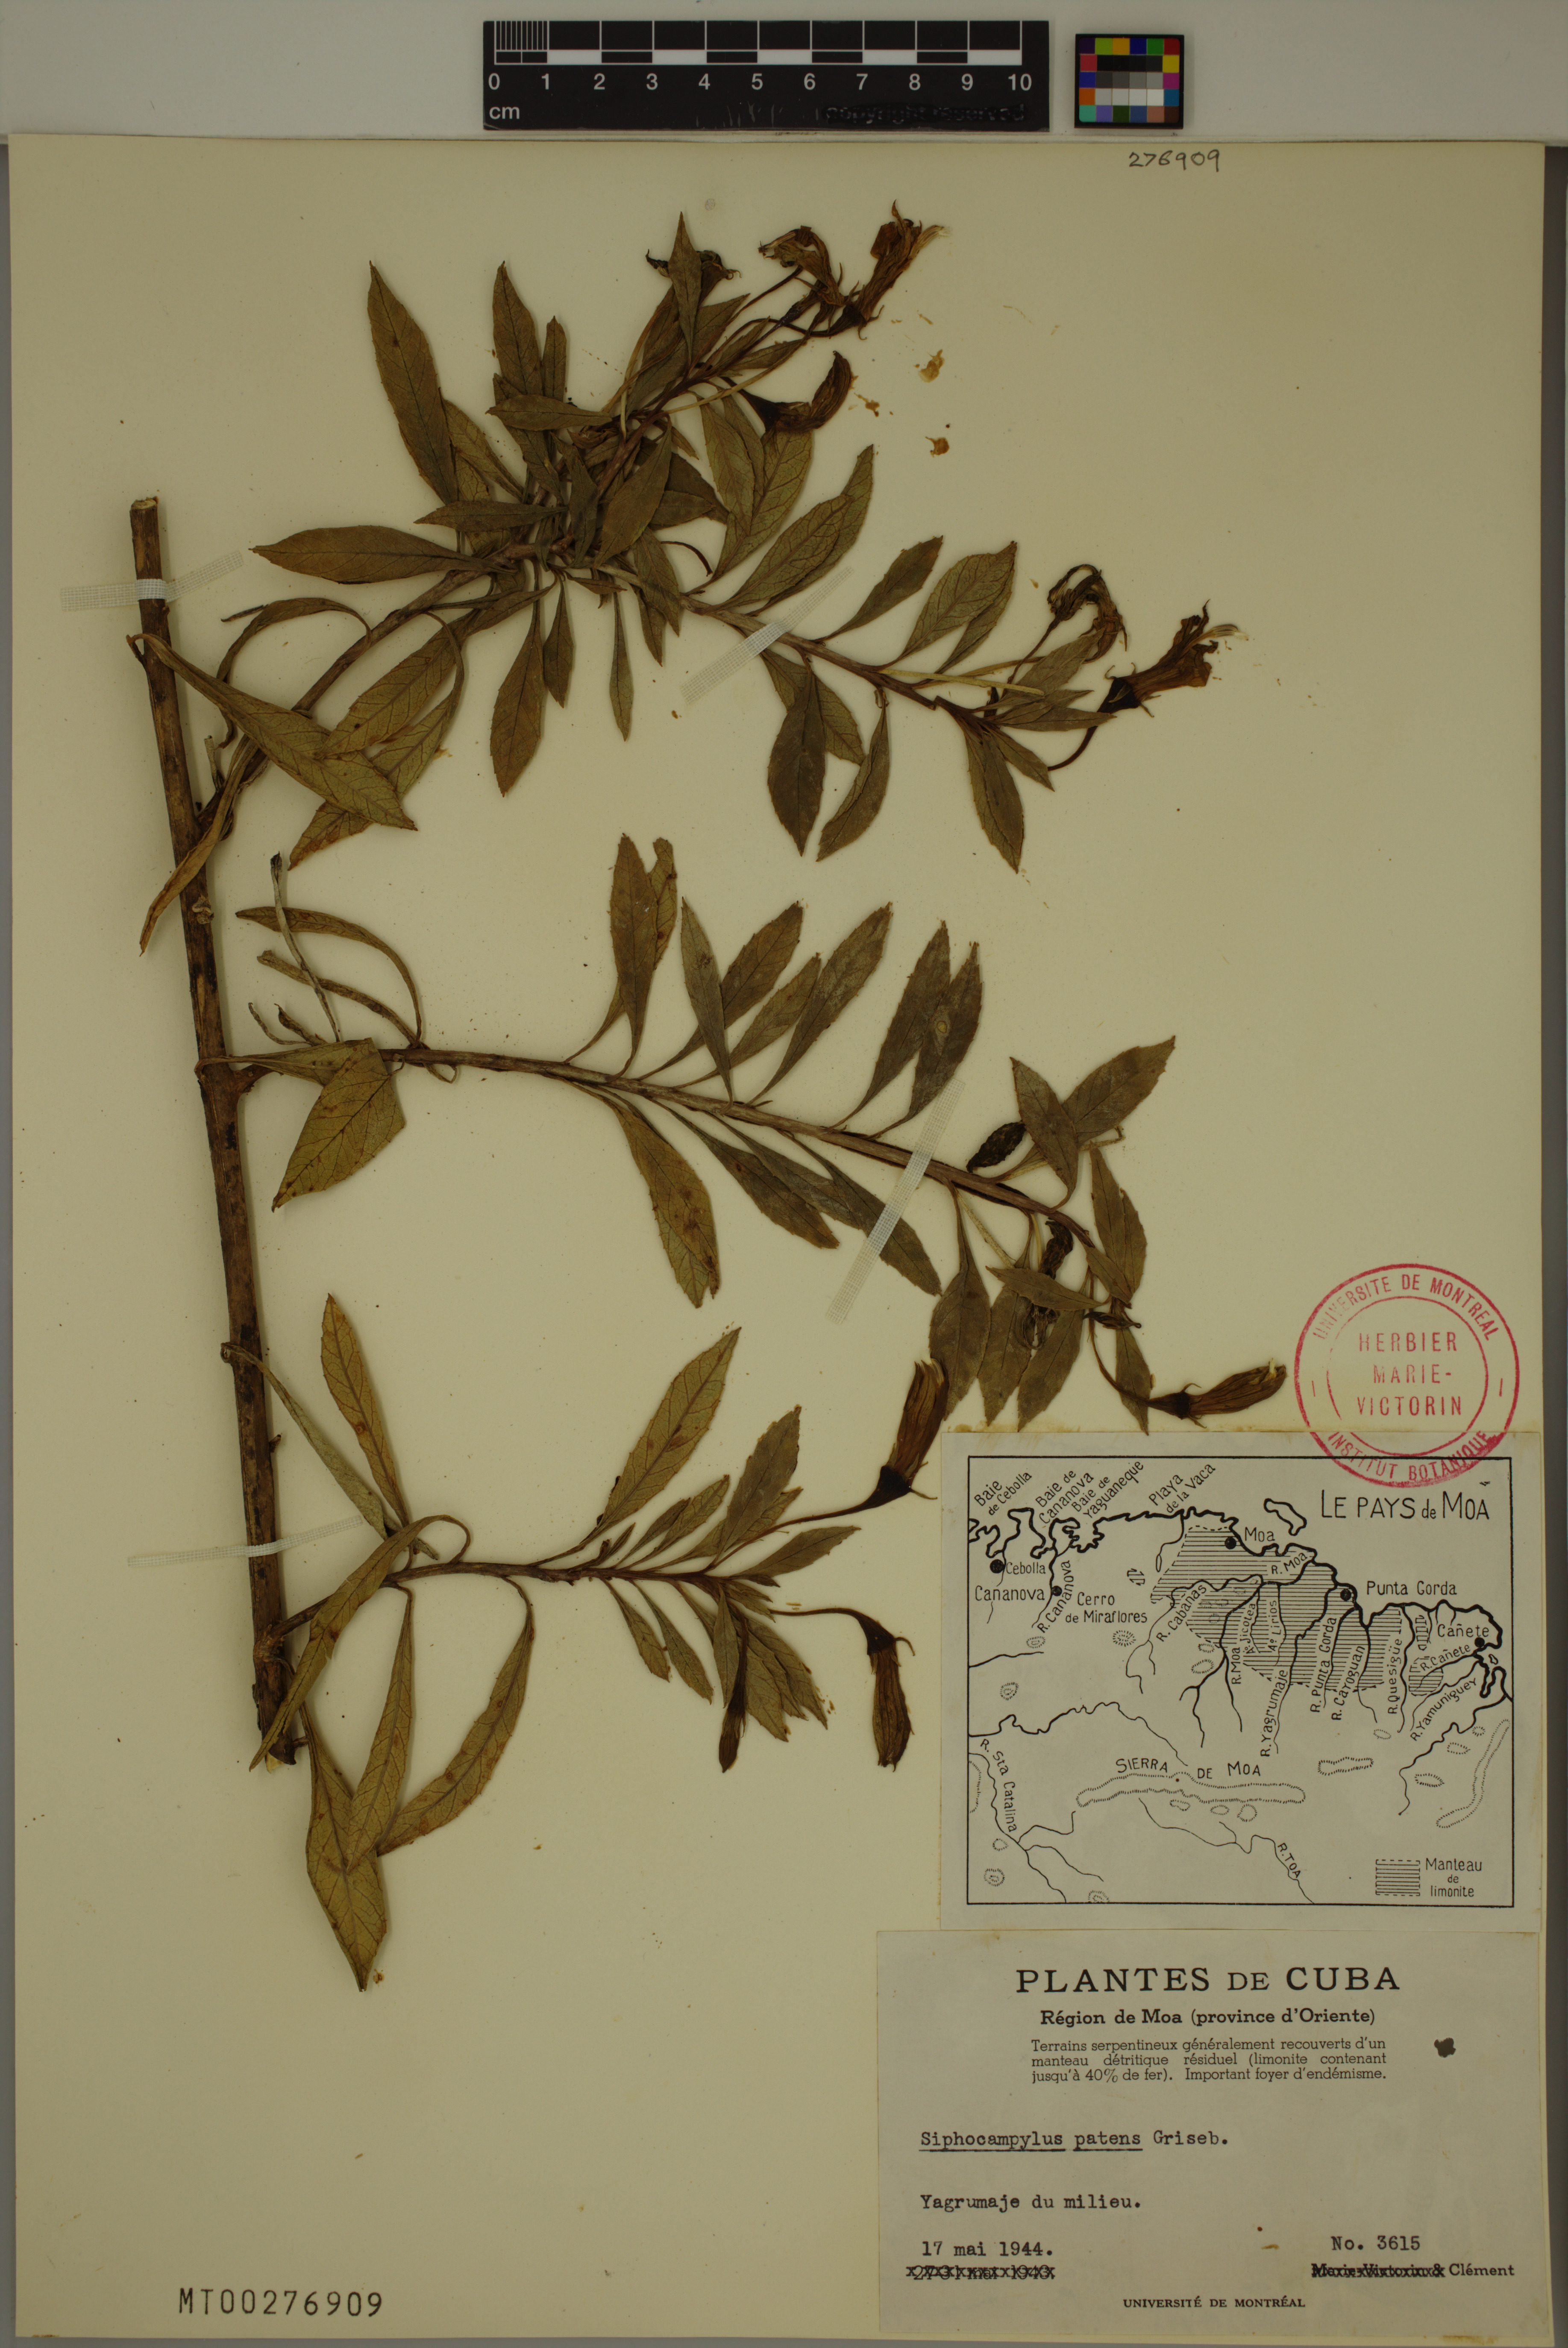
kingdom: Plantae
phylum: Tracheophyta
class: Magnoliopsida
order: Asterales
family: Campanulaceae
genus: Siphocampylus
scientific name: Siphocampylus patens
